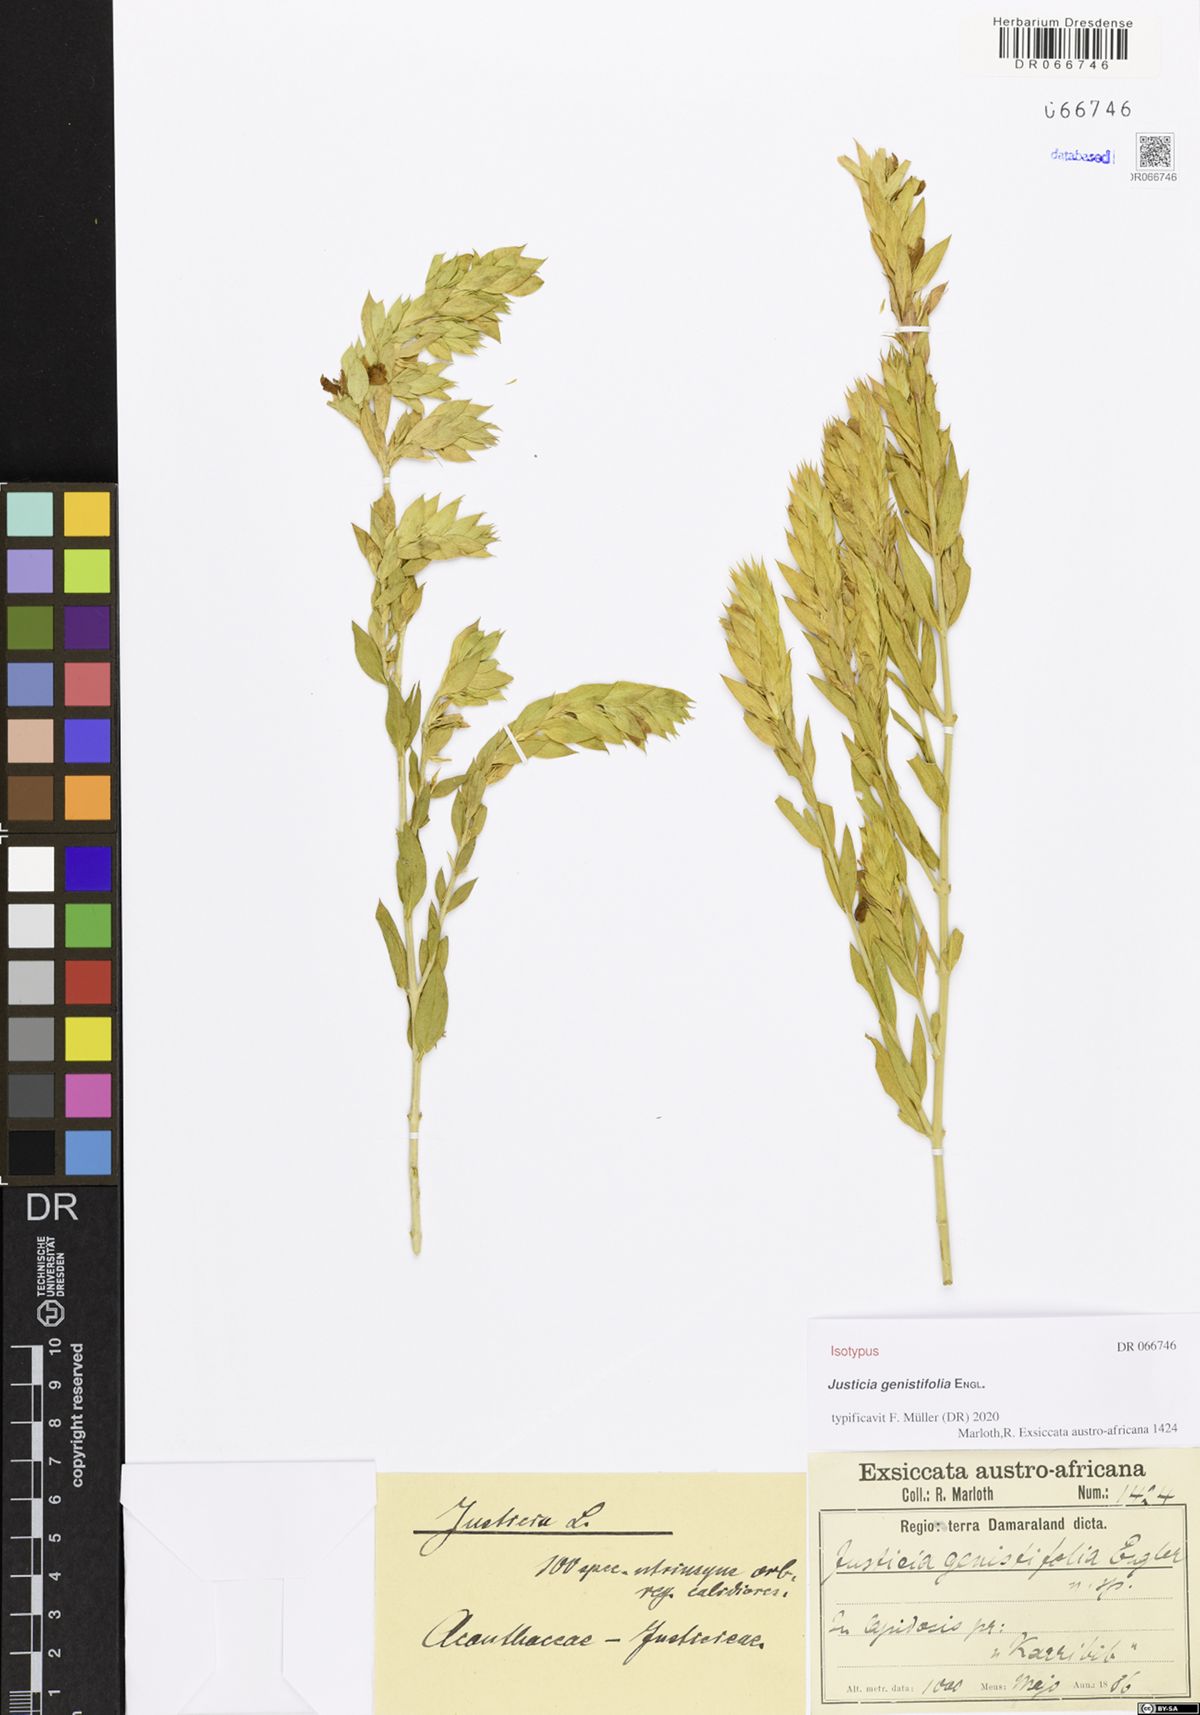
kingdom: Plantae
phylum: Tracheophyta
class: Magnoliopsida
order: Lamiales
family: Acanthaceae
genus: Monechma
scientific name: Monechma genistifolium
